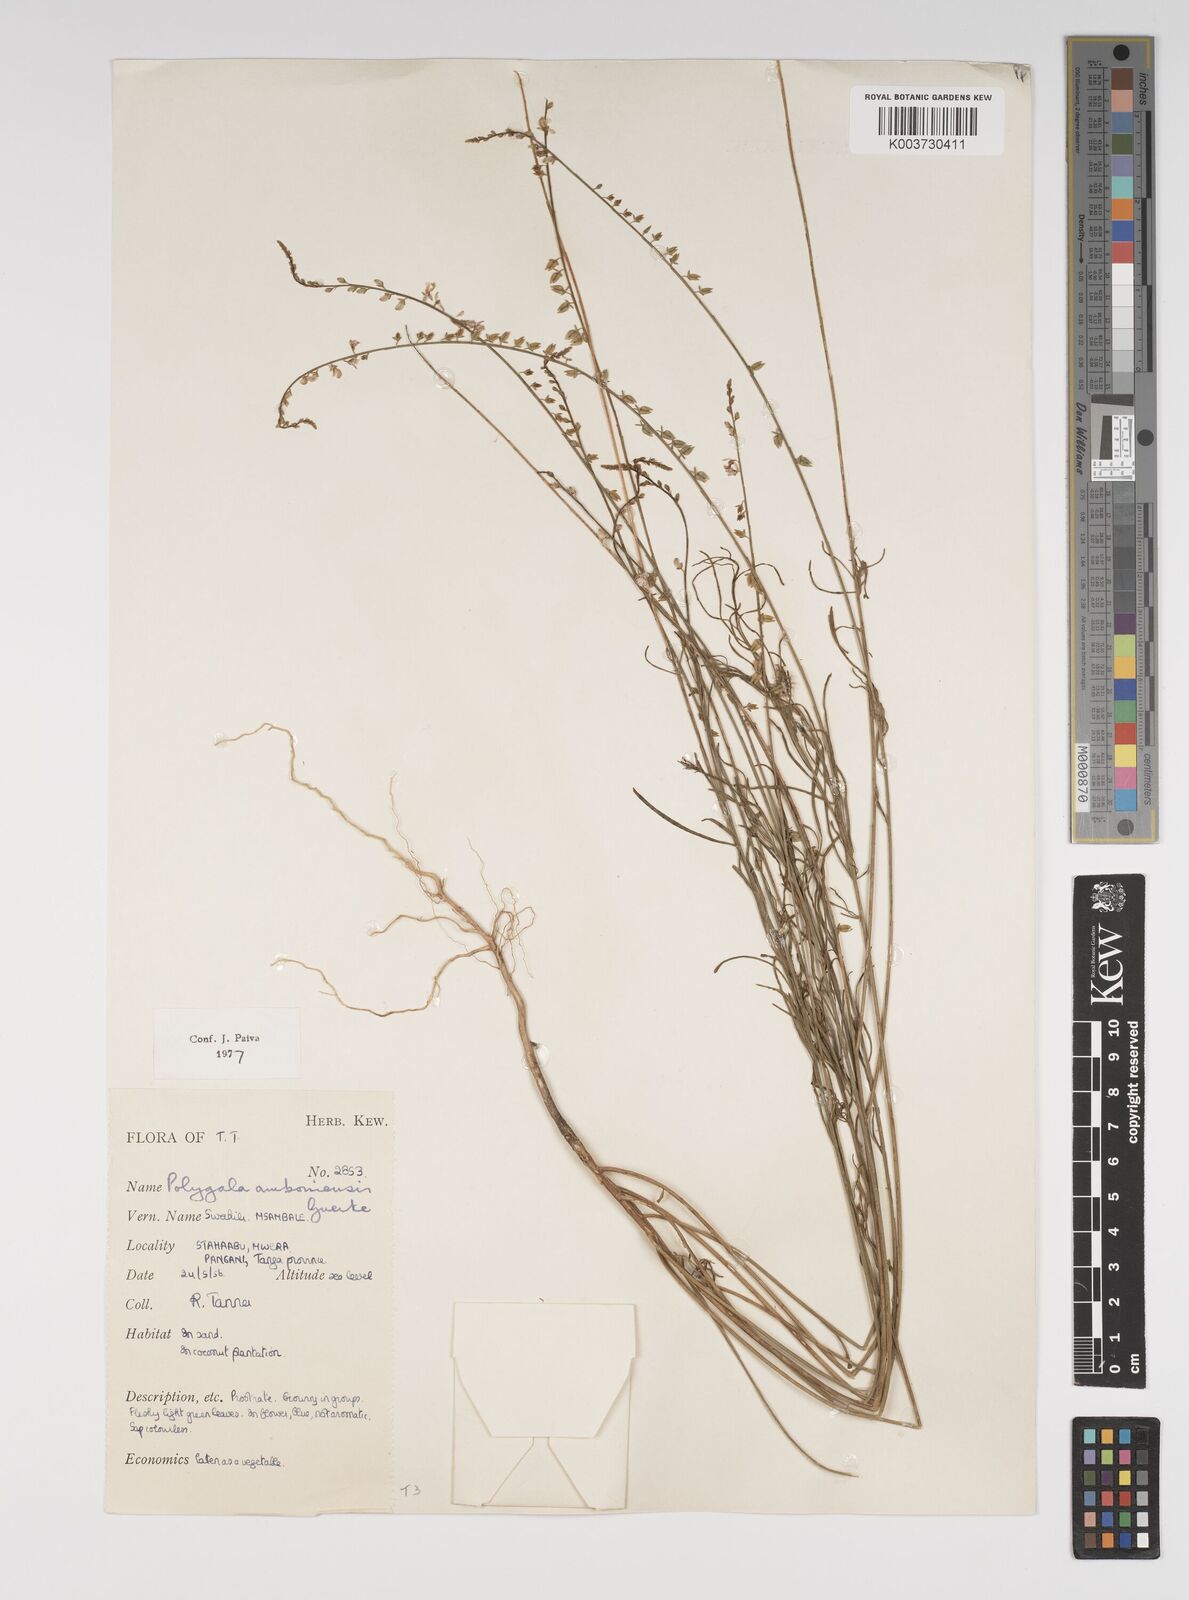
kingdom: Plantae
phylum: Tracheophyta
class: Magnoliopsida
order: Fabales
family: Polygalaceae
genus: Polygala
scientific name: Polygala amboniensis
